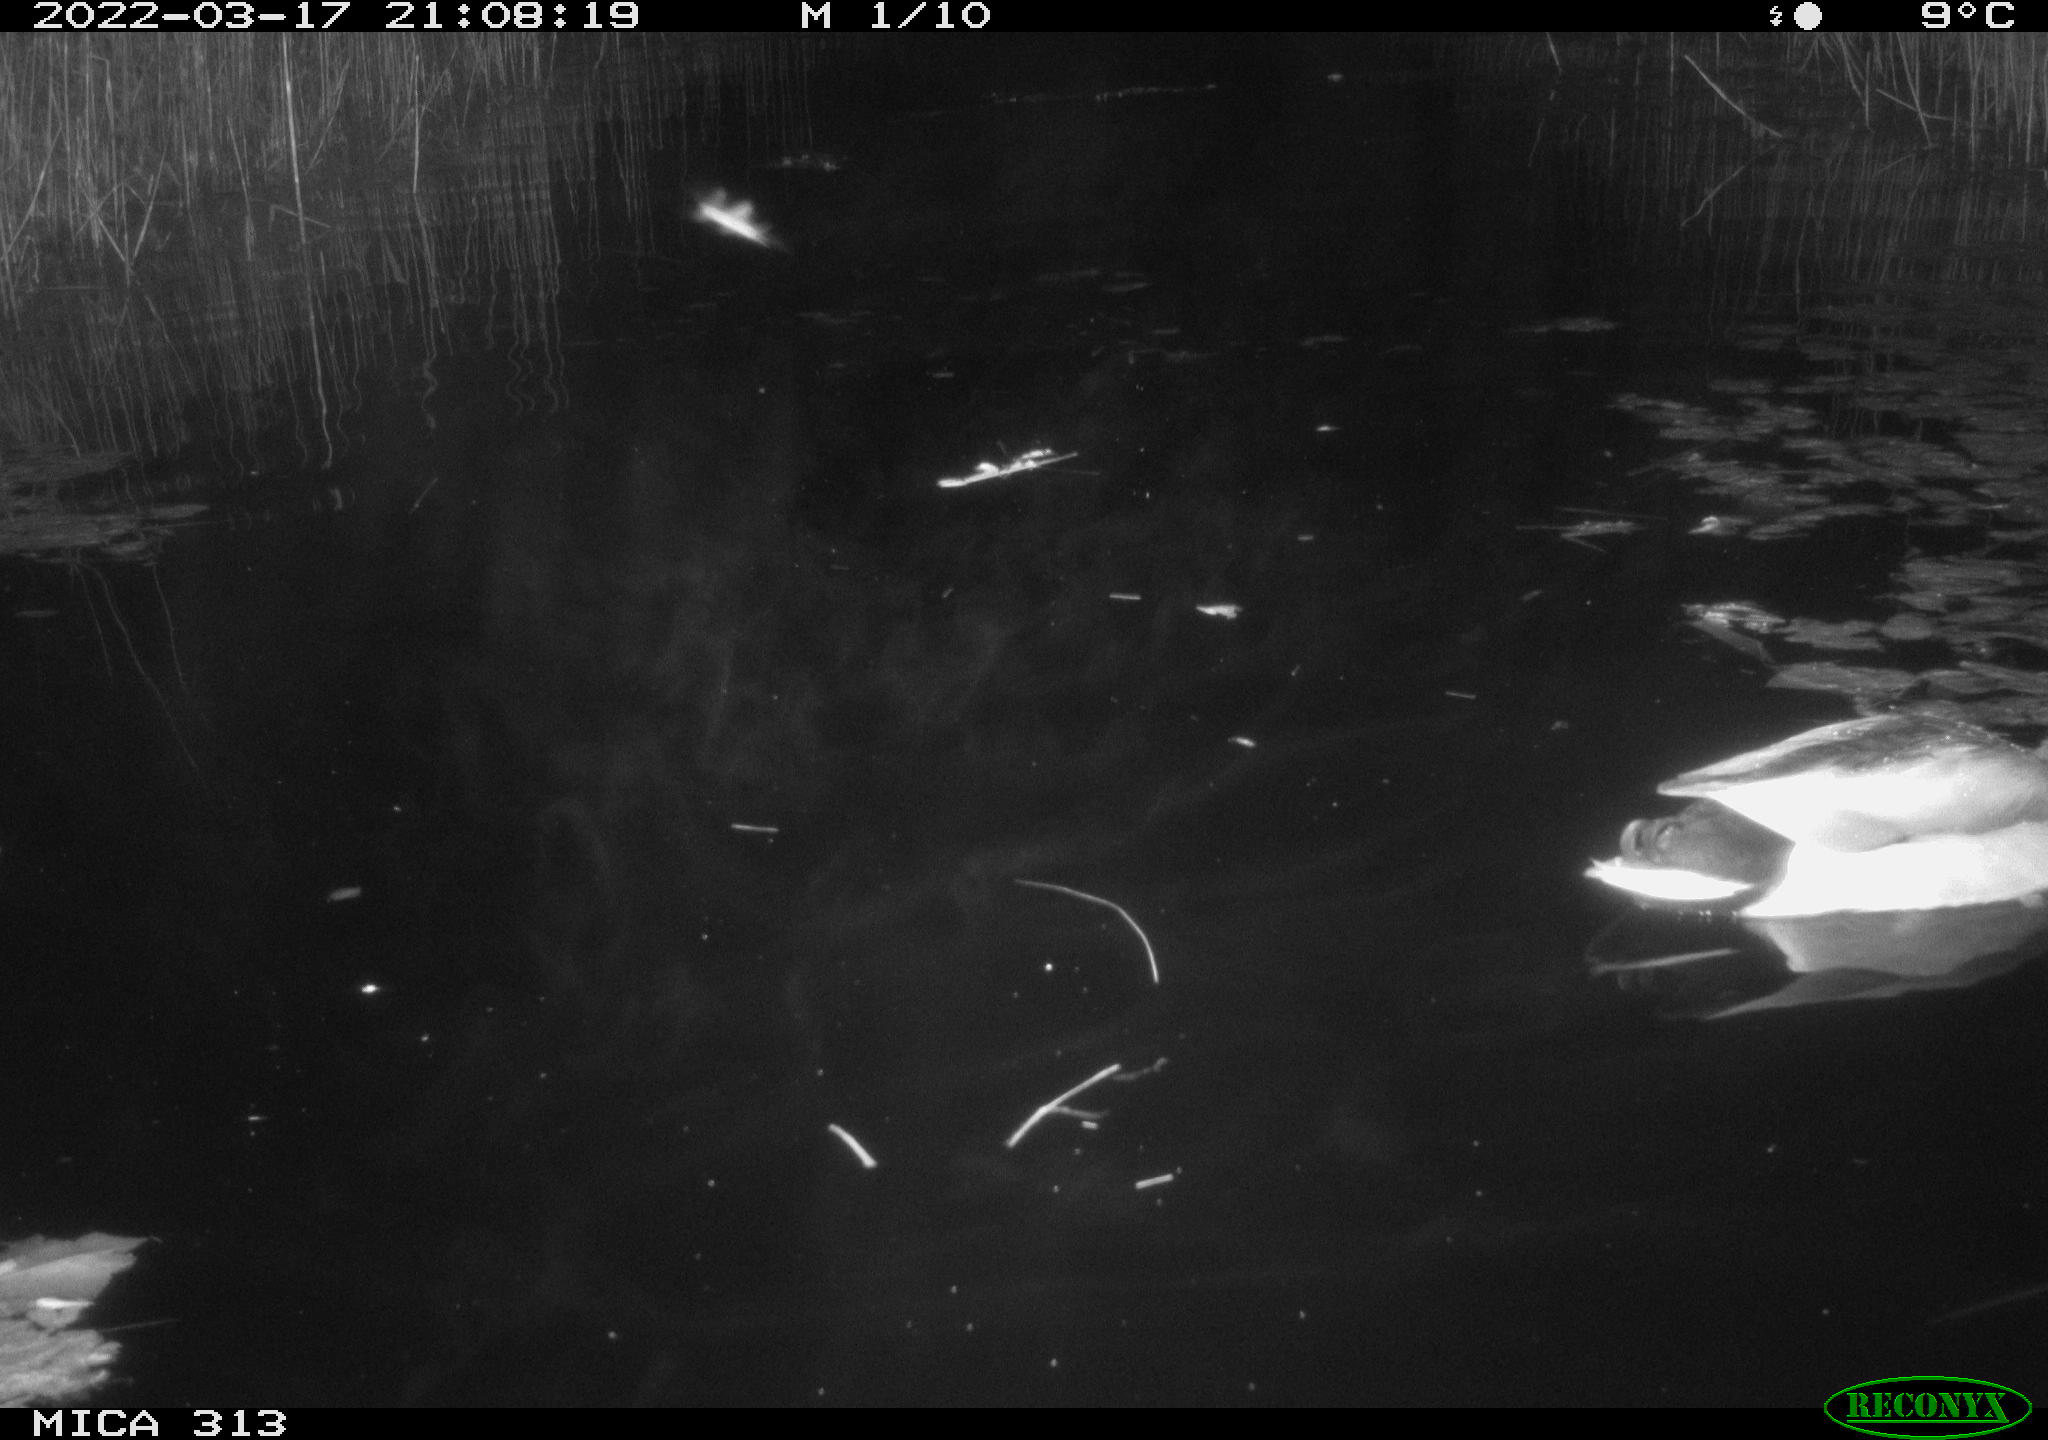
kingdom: Animalia
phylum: Chordata
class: Aves
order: Anseriformes
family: Anatidae
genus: Mareca
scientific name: Mareca strepera
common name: Gadwall
